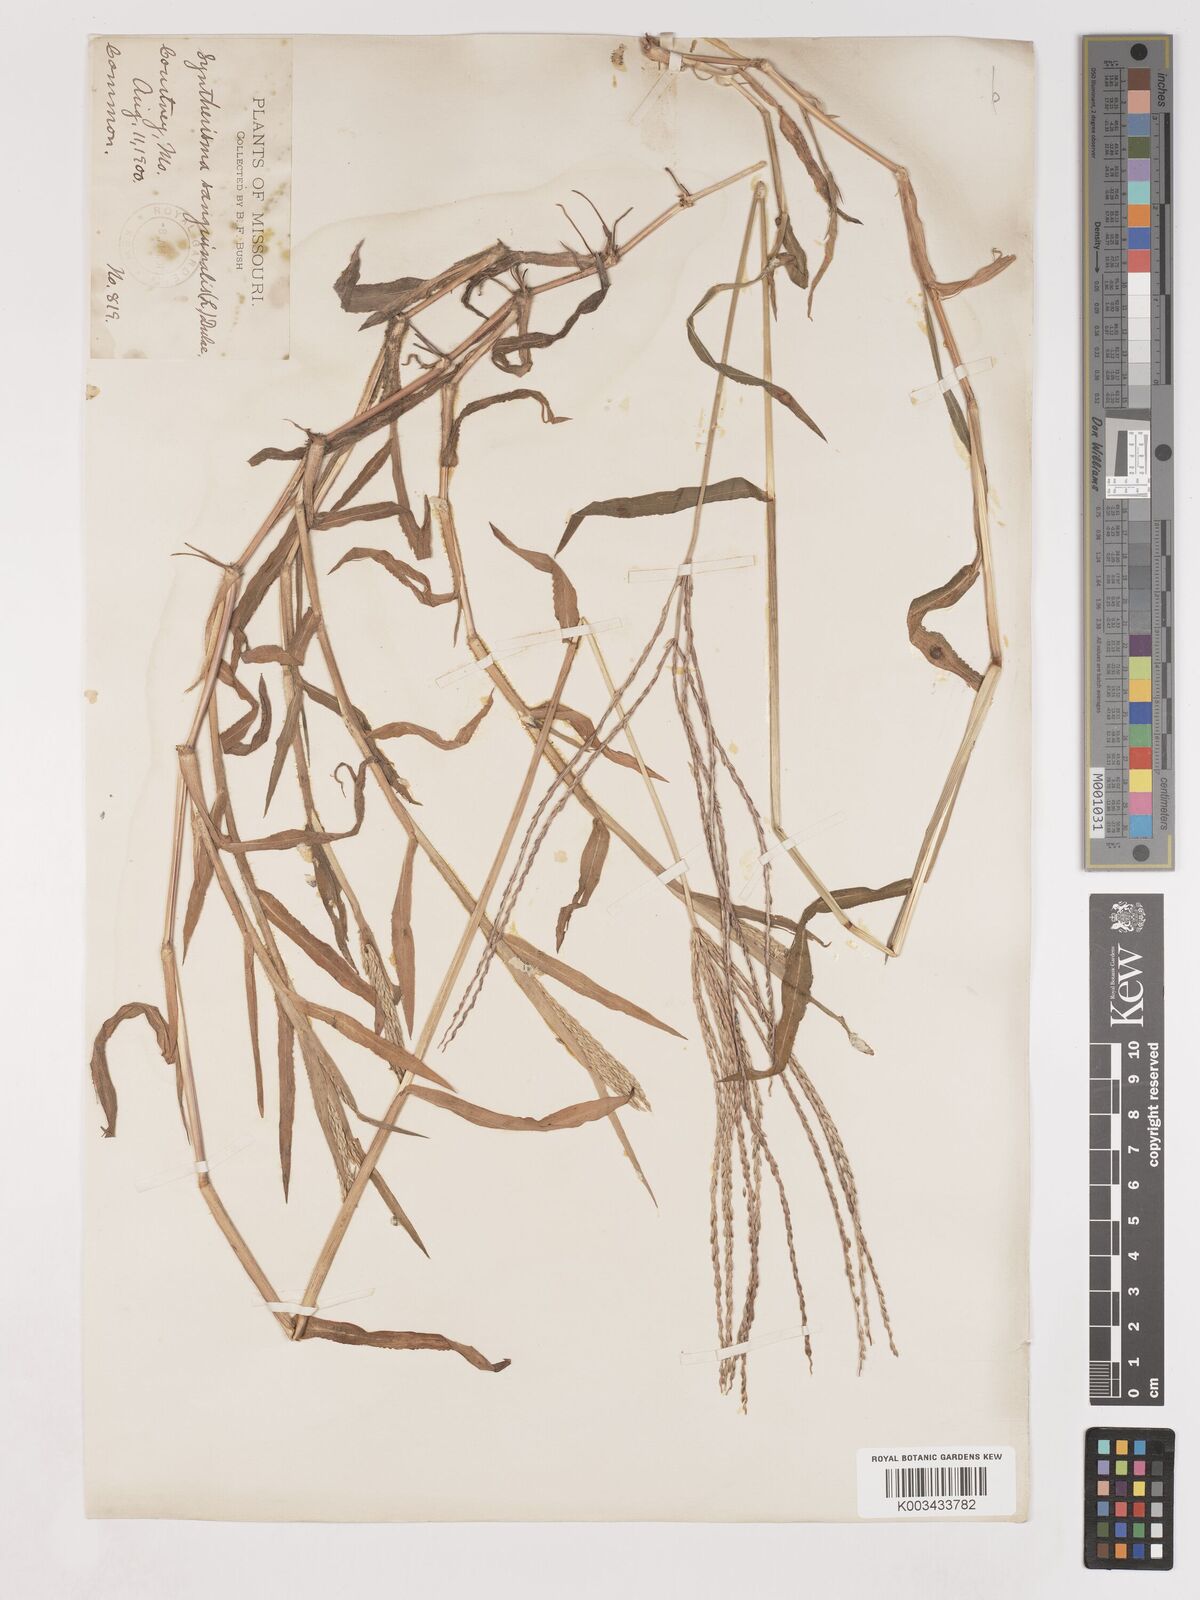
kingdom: Plantae
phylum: Tracheophyta
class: Liliopsida
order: Poales
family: Poaceae
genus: Digitaria
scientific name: Digitaria sanguinalis
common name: Hairy crabgrass
